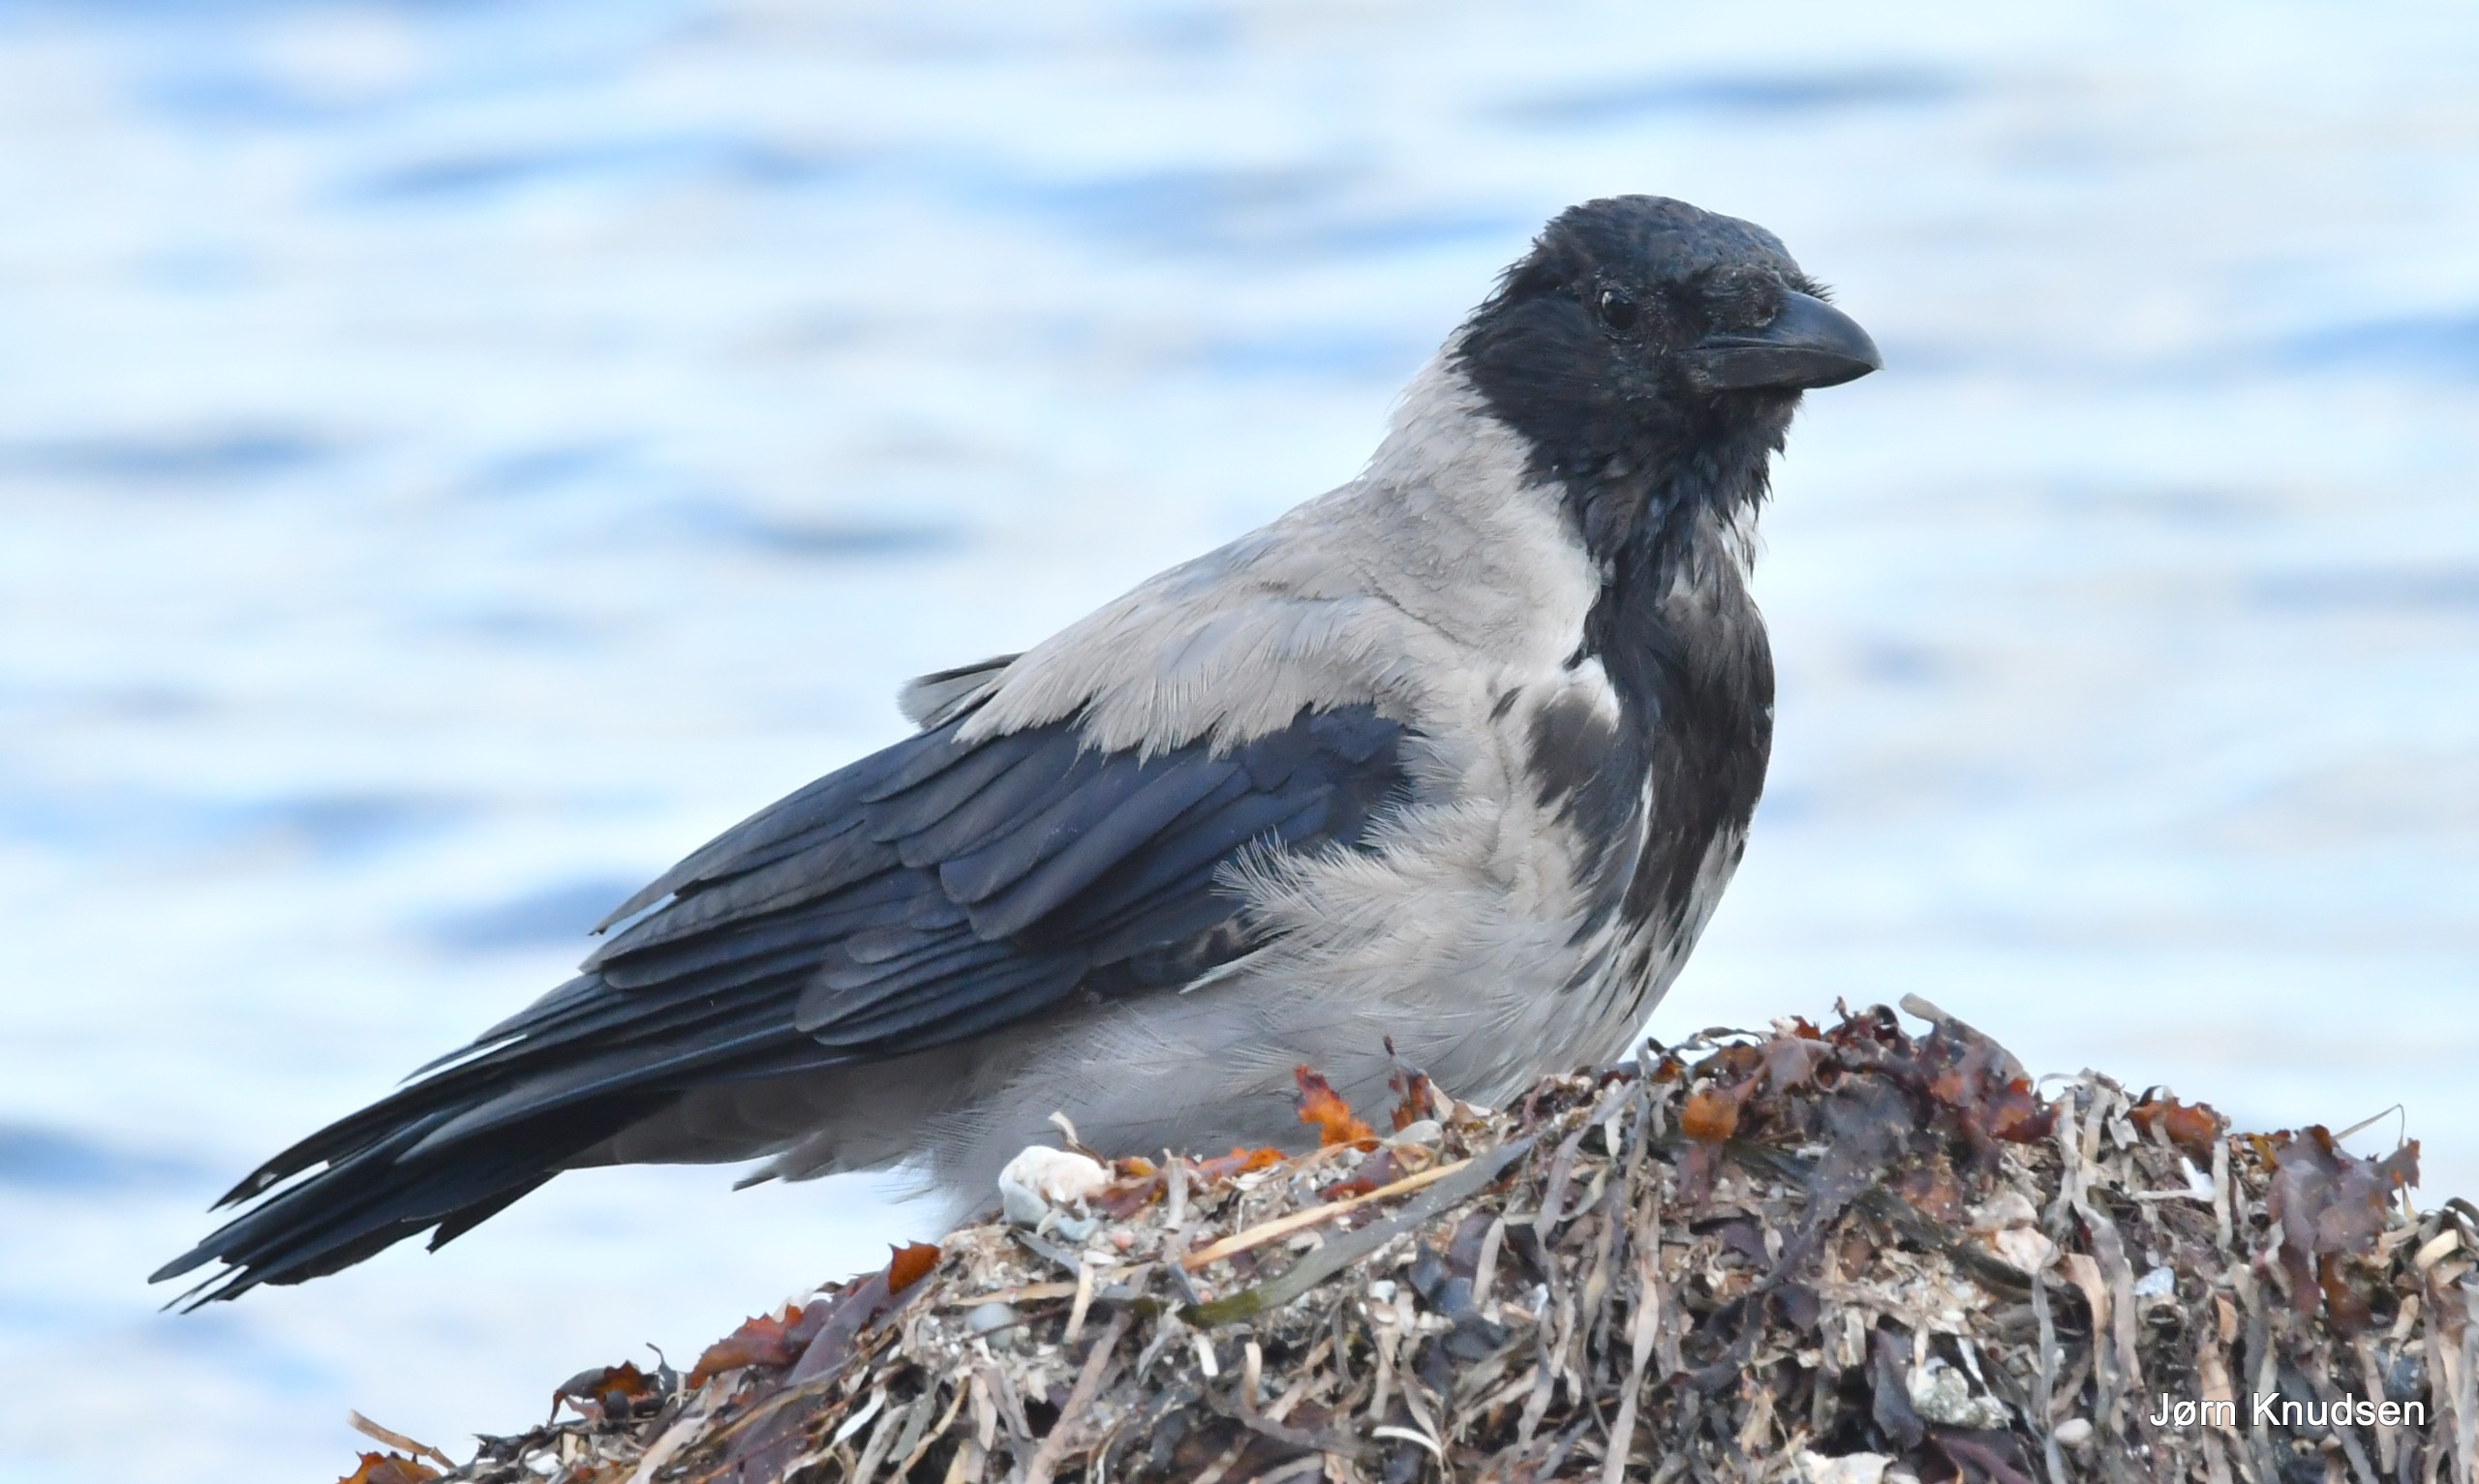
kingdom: Animalia
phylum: Chordata
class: Aves
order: Passeriformes
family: Corvidae
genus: Corvus
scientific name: Corvus cornix
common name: Gråkrage
